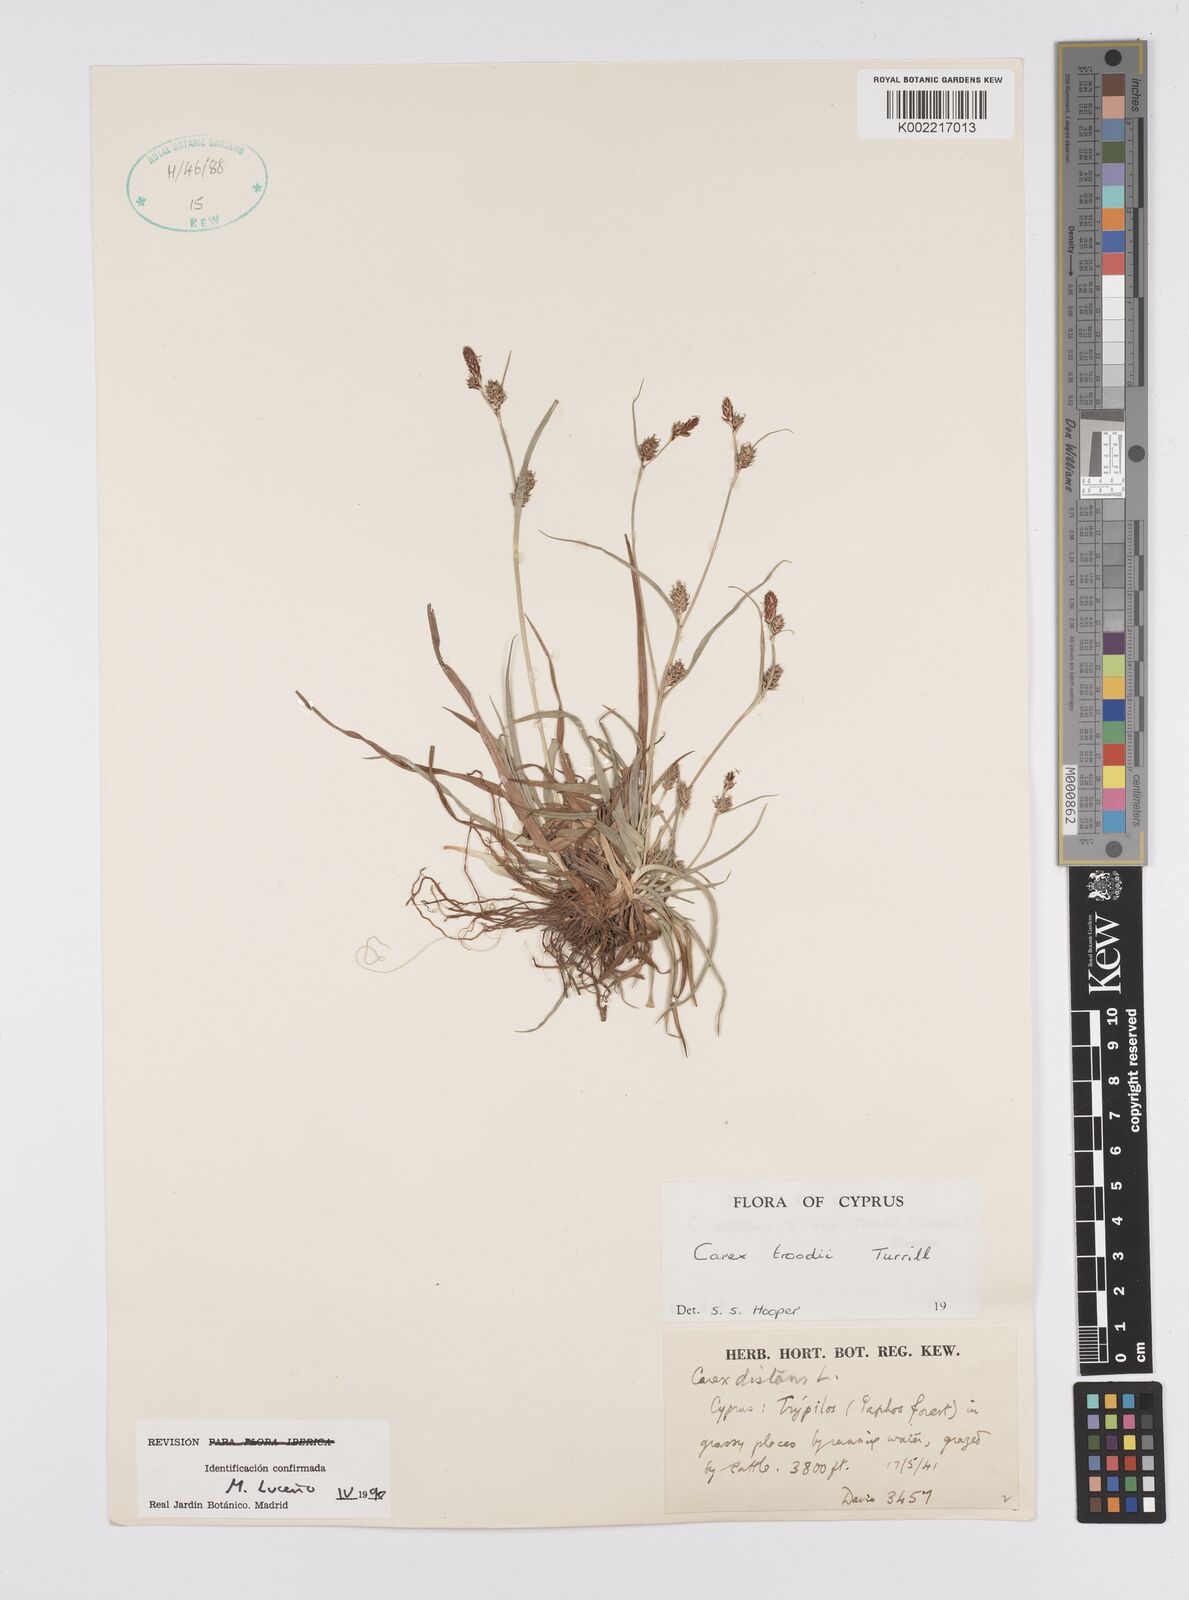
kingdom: Plantae
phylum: Tracheophyta
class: Liliopsida
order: Poales
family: Cyperaceae
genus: Carex
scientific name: Carex troodi
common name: Troodos mount sedge
